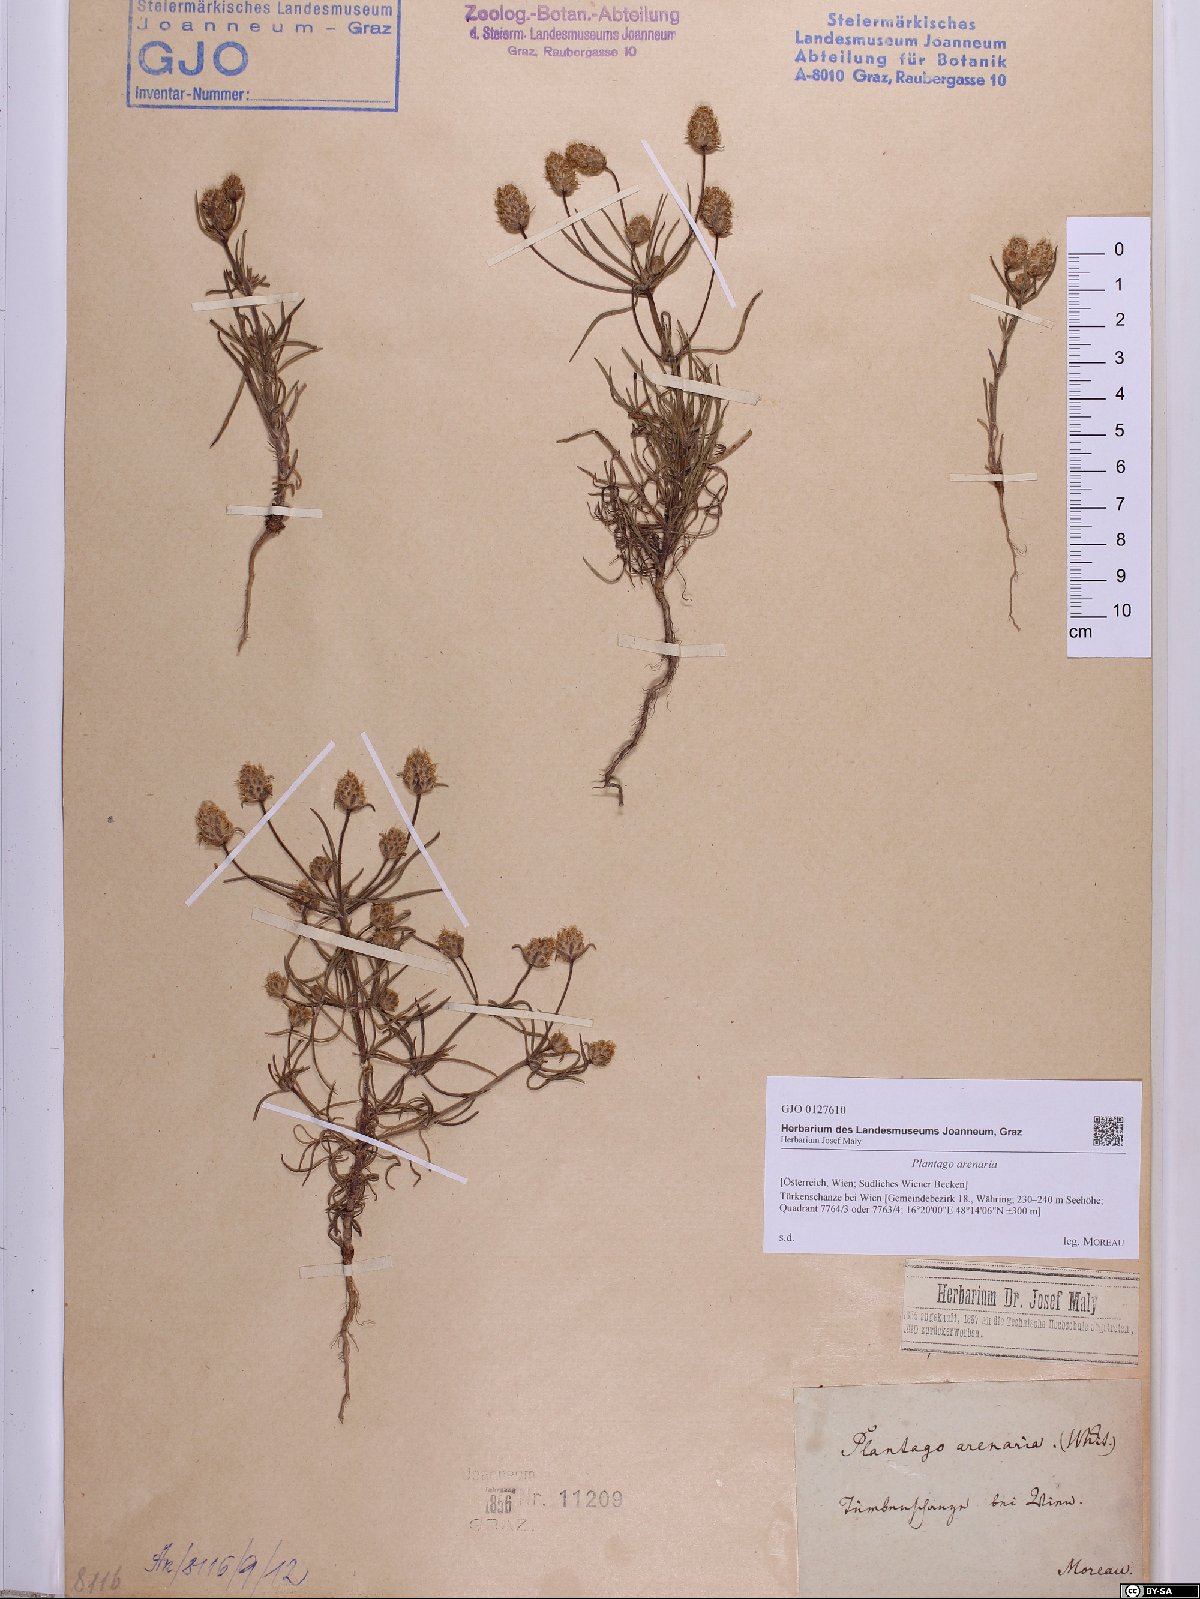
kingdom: Plantae
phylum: Tracheophyta
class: Magnoliopsida
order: Lamiales
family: Plantaginaceae
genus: Plantago
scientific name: Plantago arenaria
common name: Branched plantain
